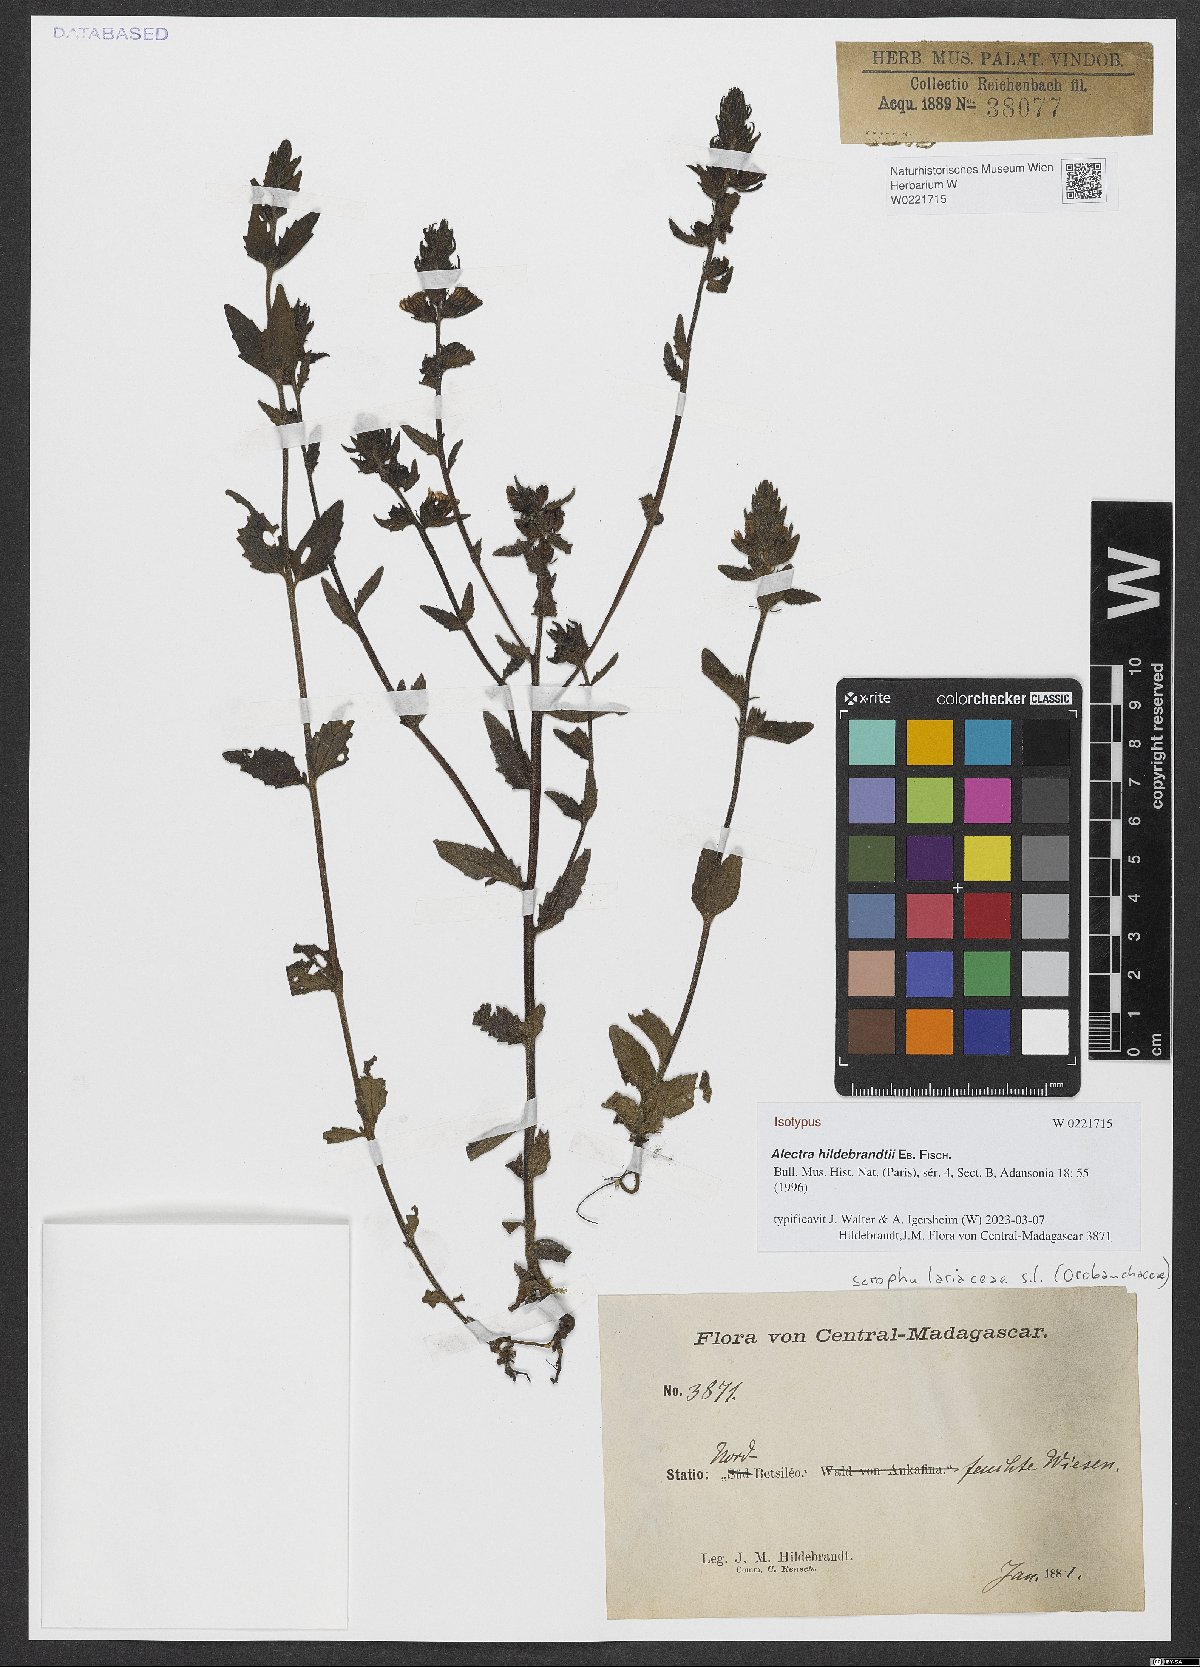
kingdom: Plantae
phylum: Tracheophyta
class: Magnoliopsida
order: Lamiales
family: Orobanchaceae
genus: Alectra
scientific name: Alectra hildebrandtii
